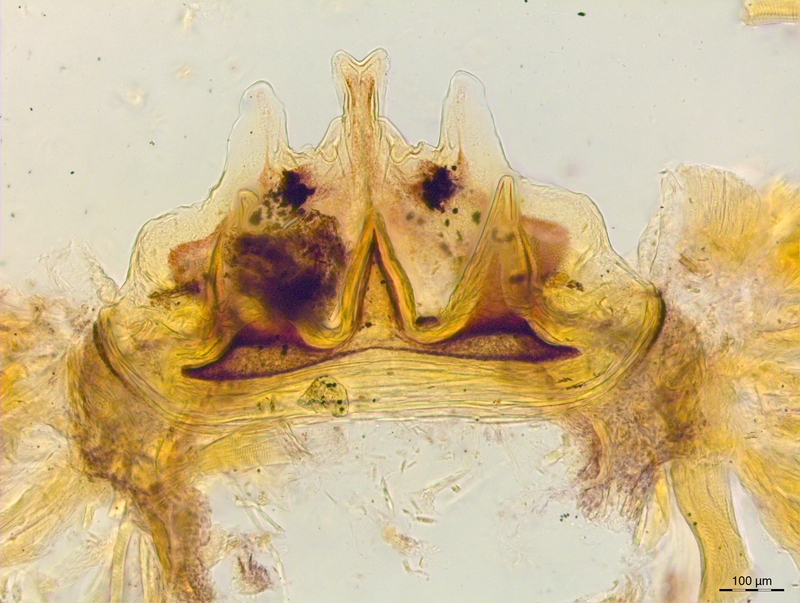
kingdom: Animalia
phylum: Arthropoda
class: Diplopoda
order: Chordeumatida
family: Craspedosomatidae
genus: Craspedosoma
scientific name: Craspedosoma rawlinsii
